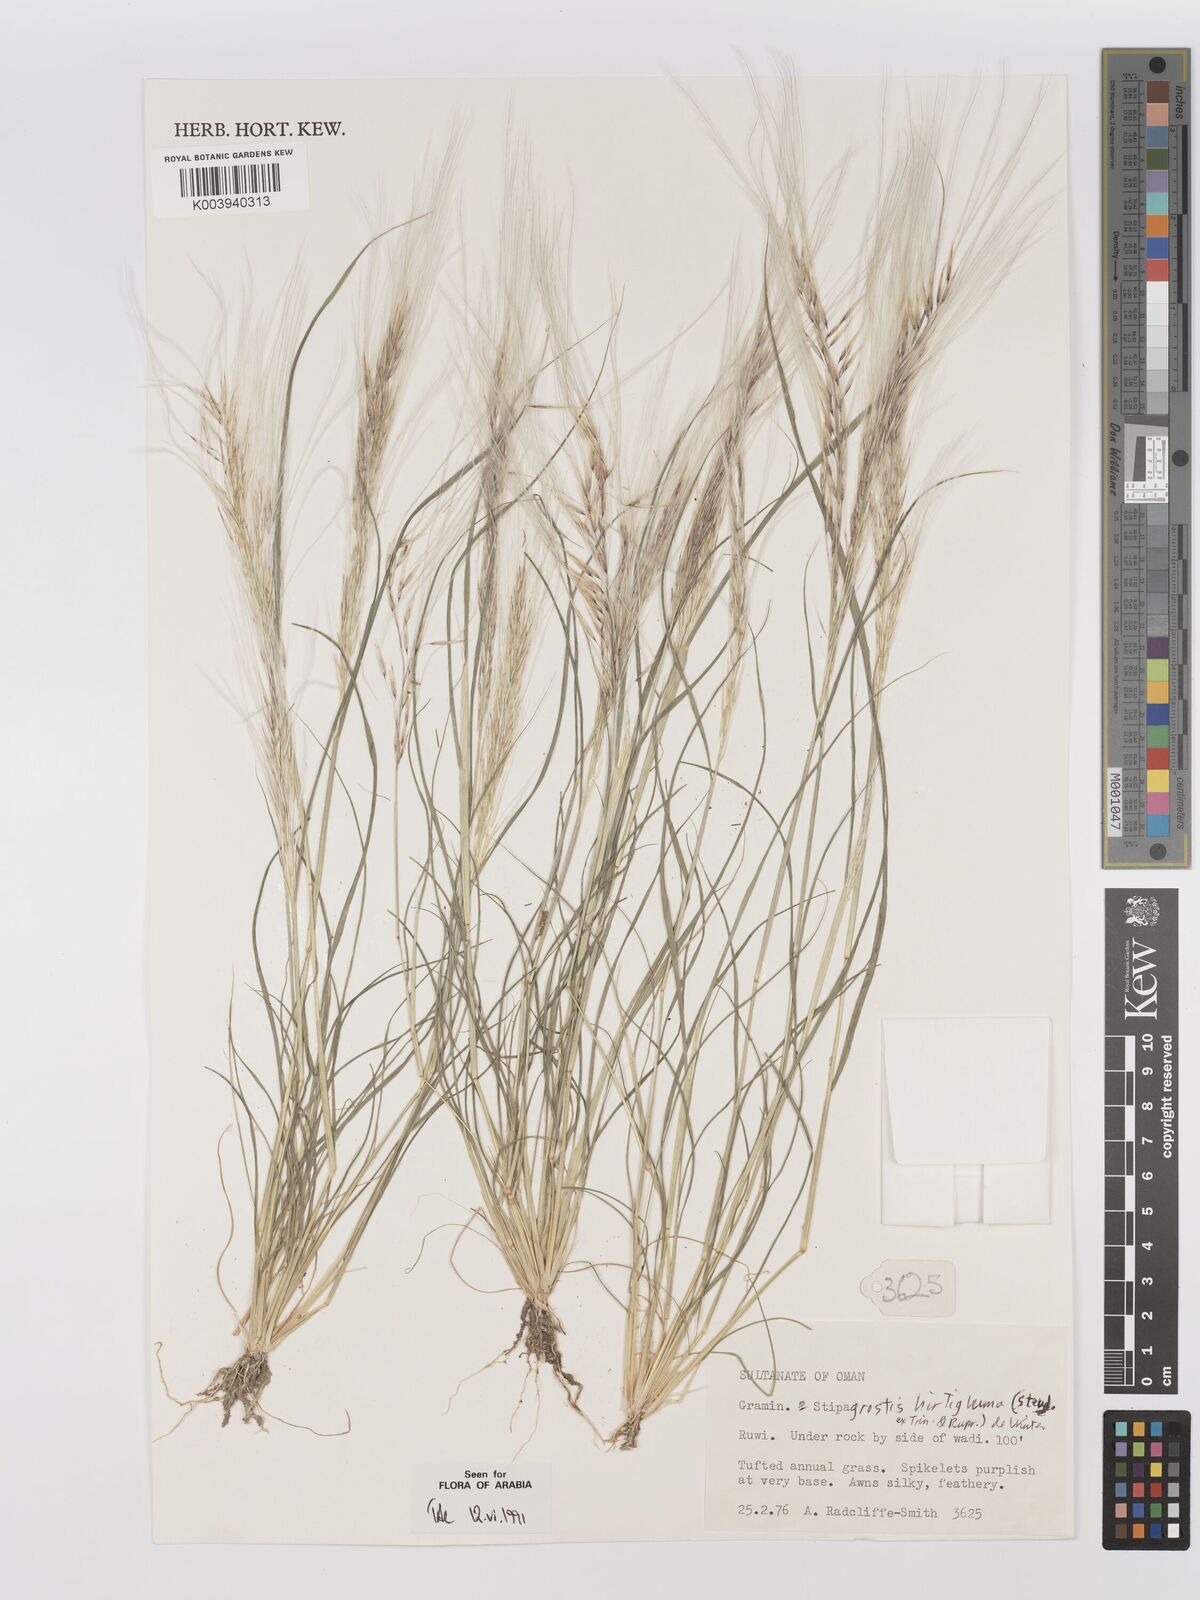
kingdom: Plantae
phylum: Tracheophyta
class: Liliopsida
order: Poales
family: Poaceae
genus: Stipagrostis
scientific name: Stipagrostis hirtigluma
